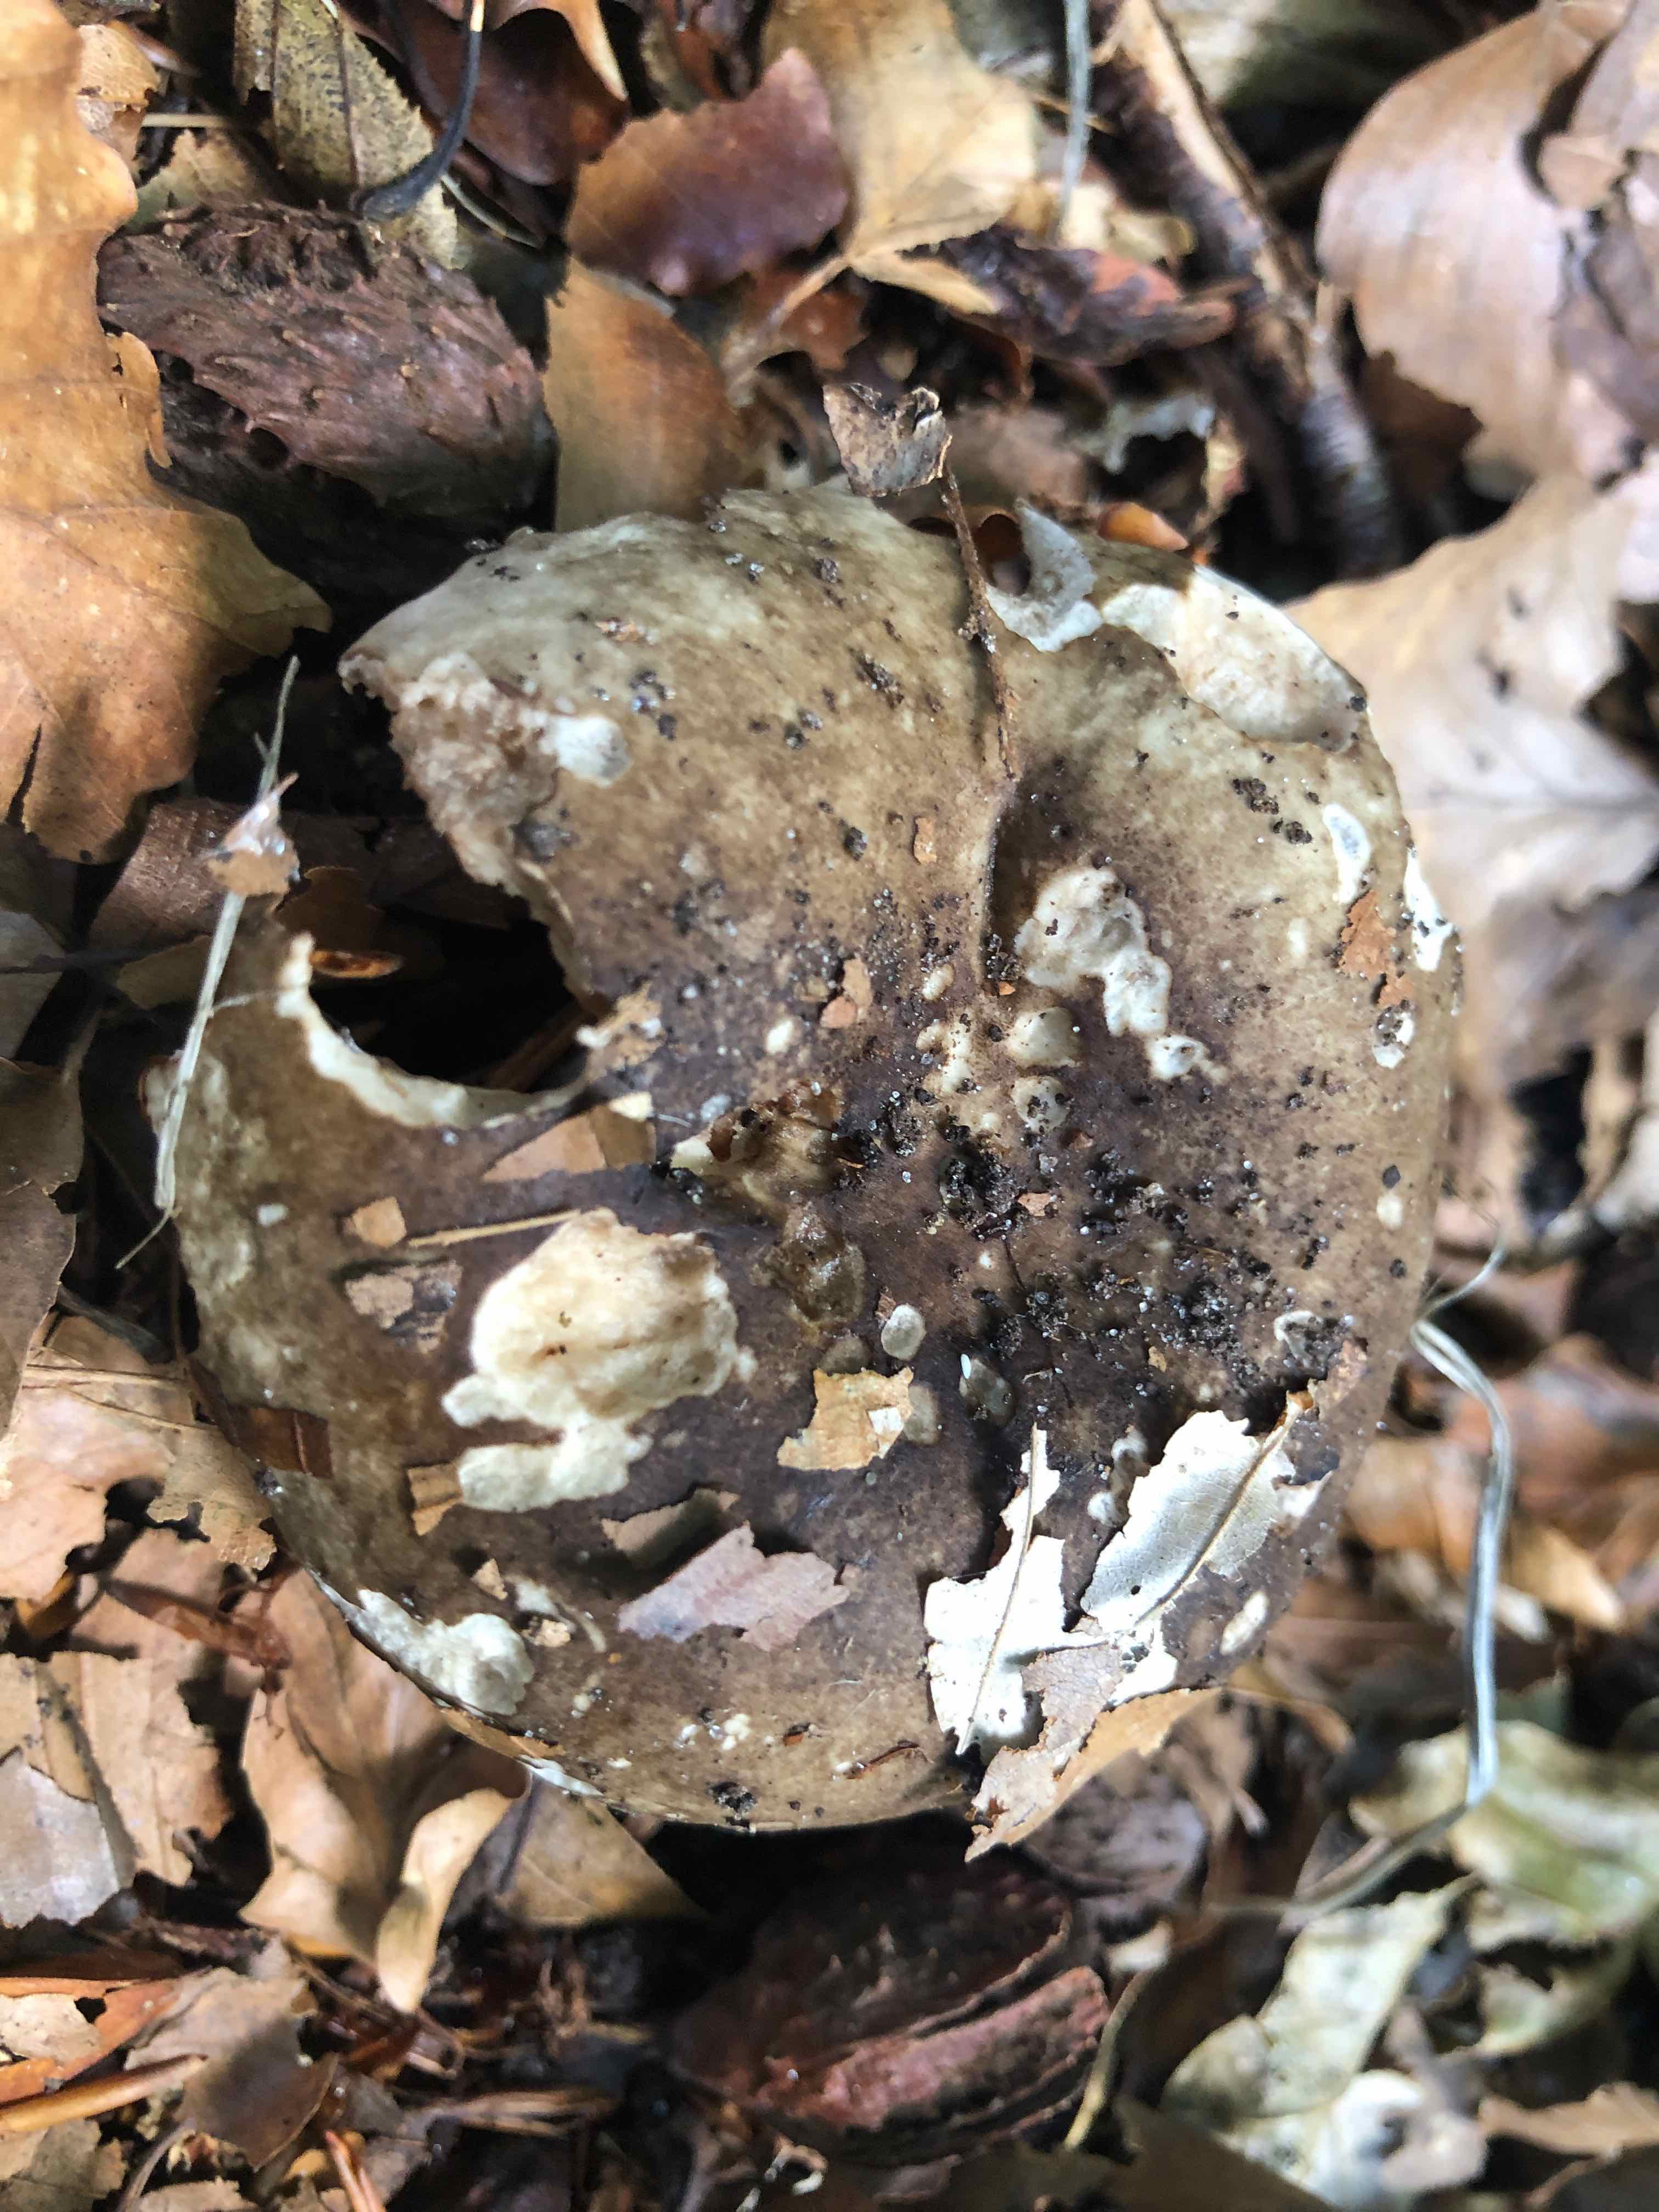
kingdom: Fungi
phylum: Basidiomycota
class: Agaricomycetes
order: Russulales
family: Russulaceae
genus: Russula
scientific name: Russula adusta
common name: sværtende skørhat
